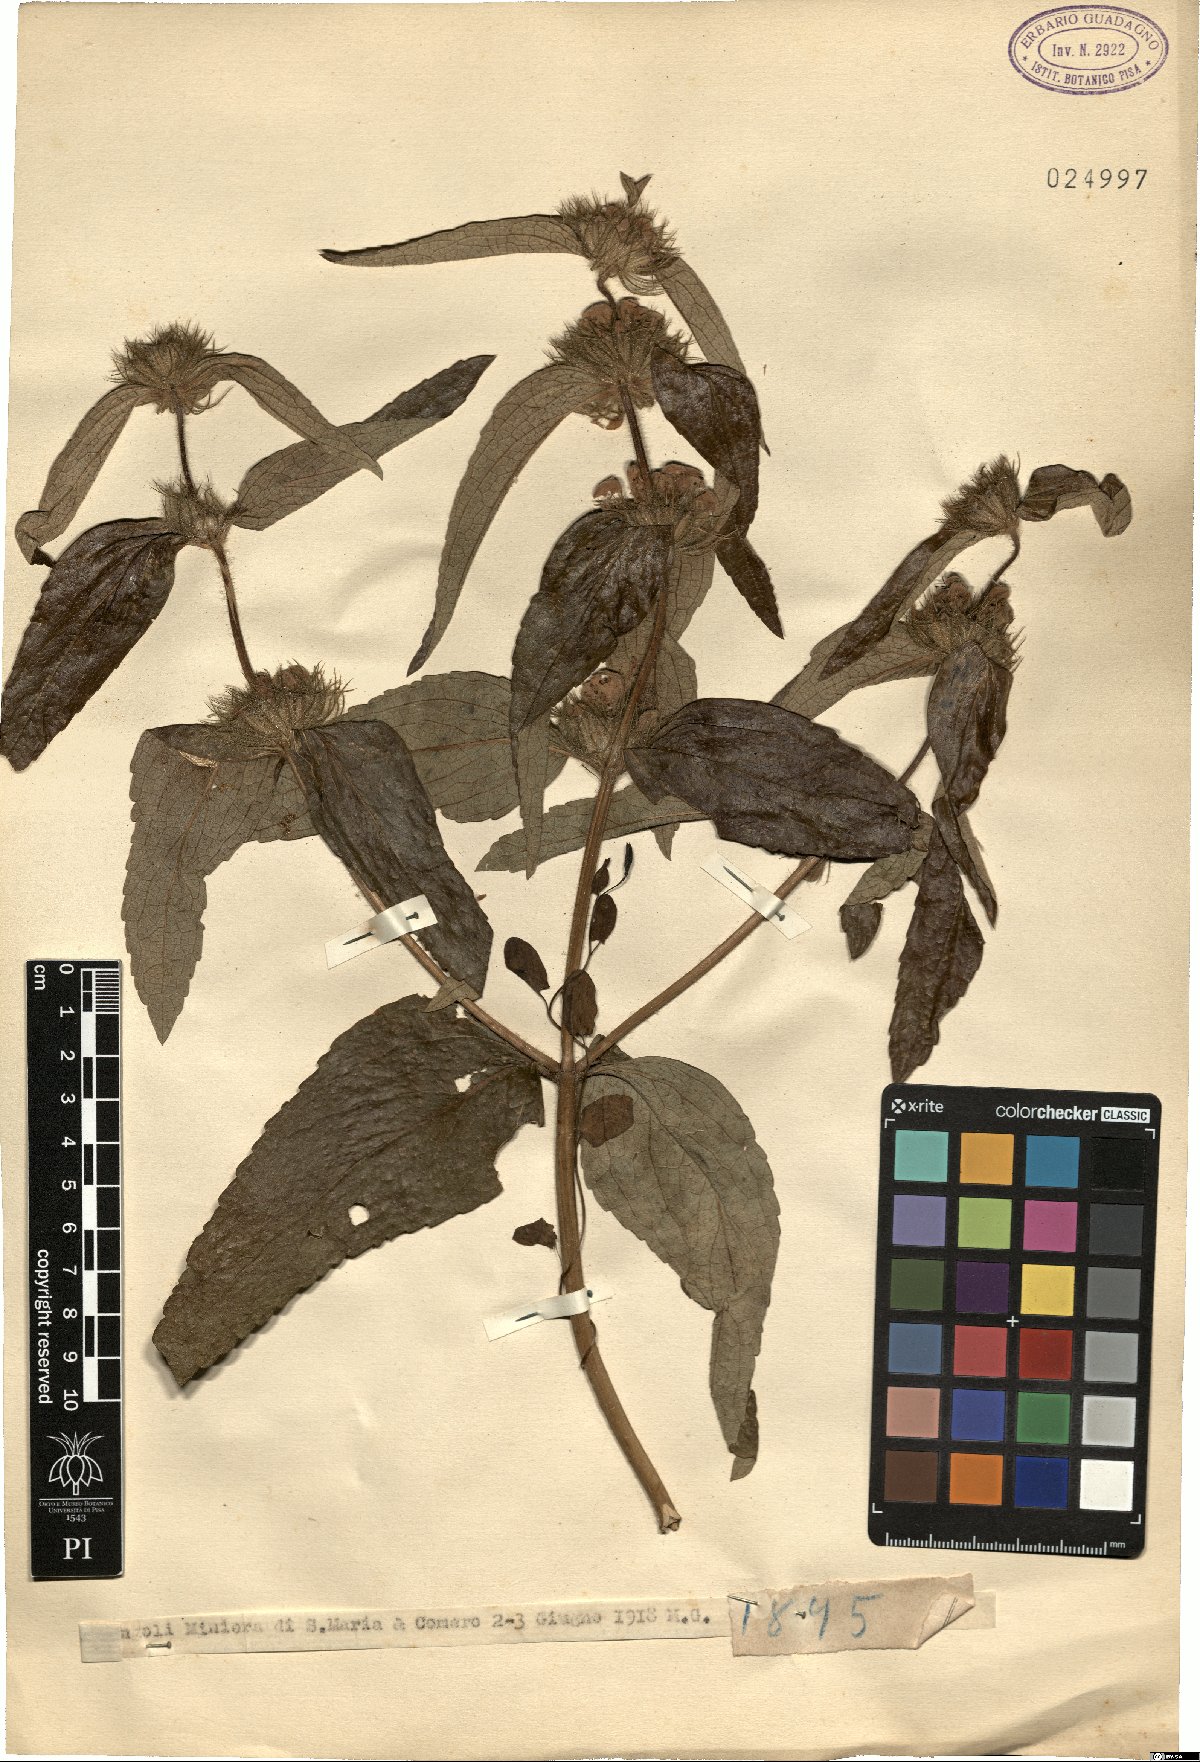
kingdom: Plantae
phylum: Tracheophyta
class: Magnoliopsida
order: Lamiales
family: Lamiaceae
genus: Phlomis
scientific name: Phlomis
